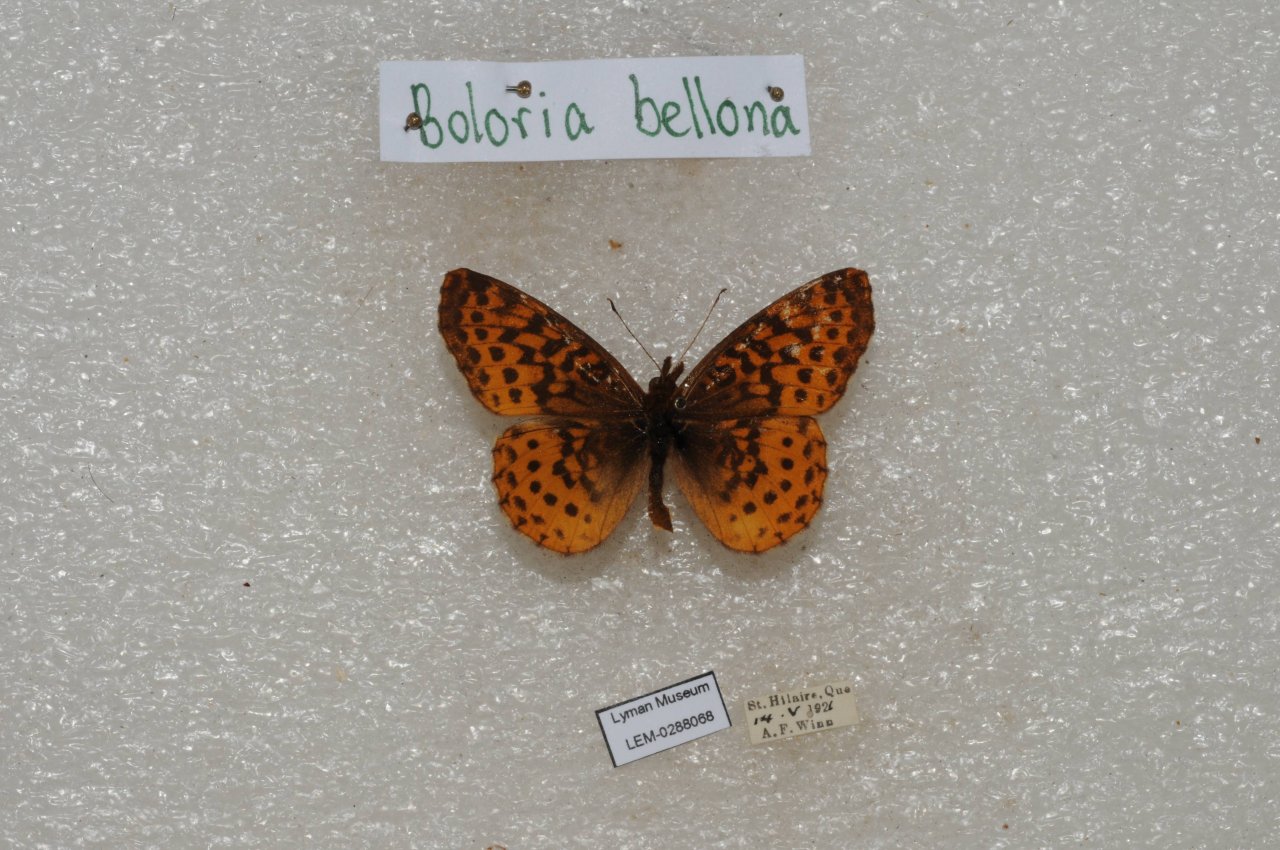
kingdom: Animalia
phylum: Arthropoda
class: Insecta
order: Lepidoptera
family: Nymphalidae
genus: Clossiana
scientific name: Clossiana toddi
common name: Meadow Fritillary
